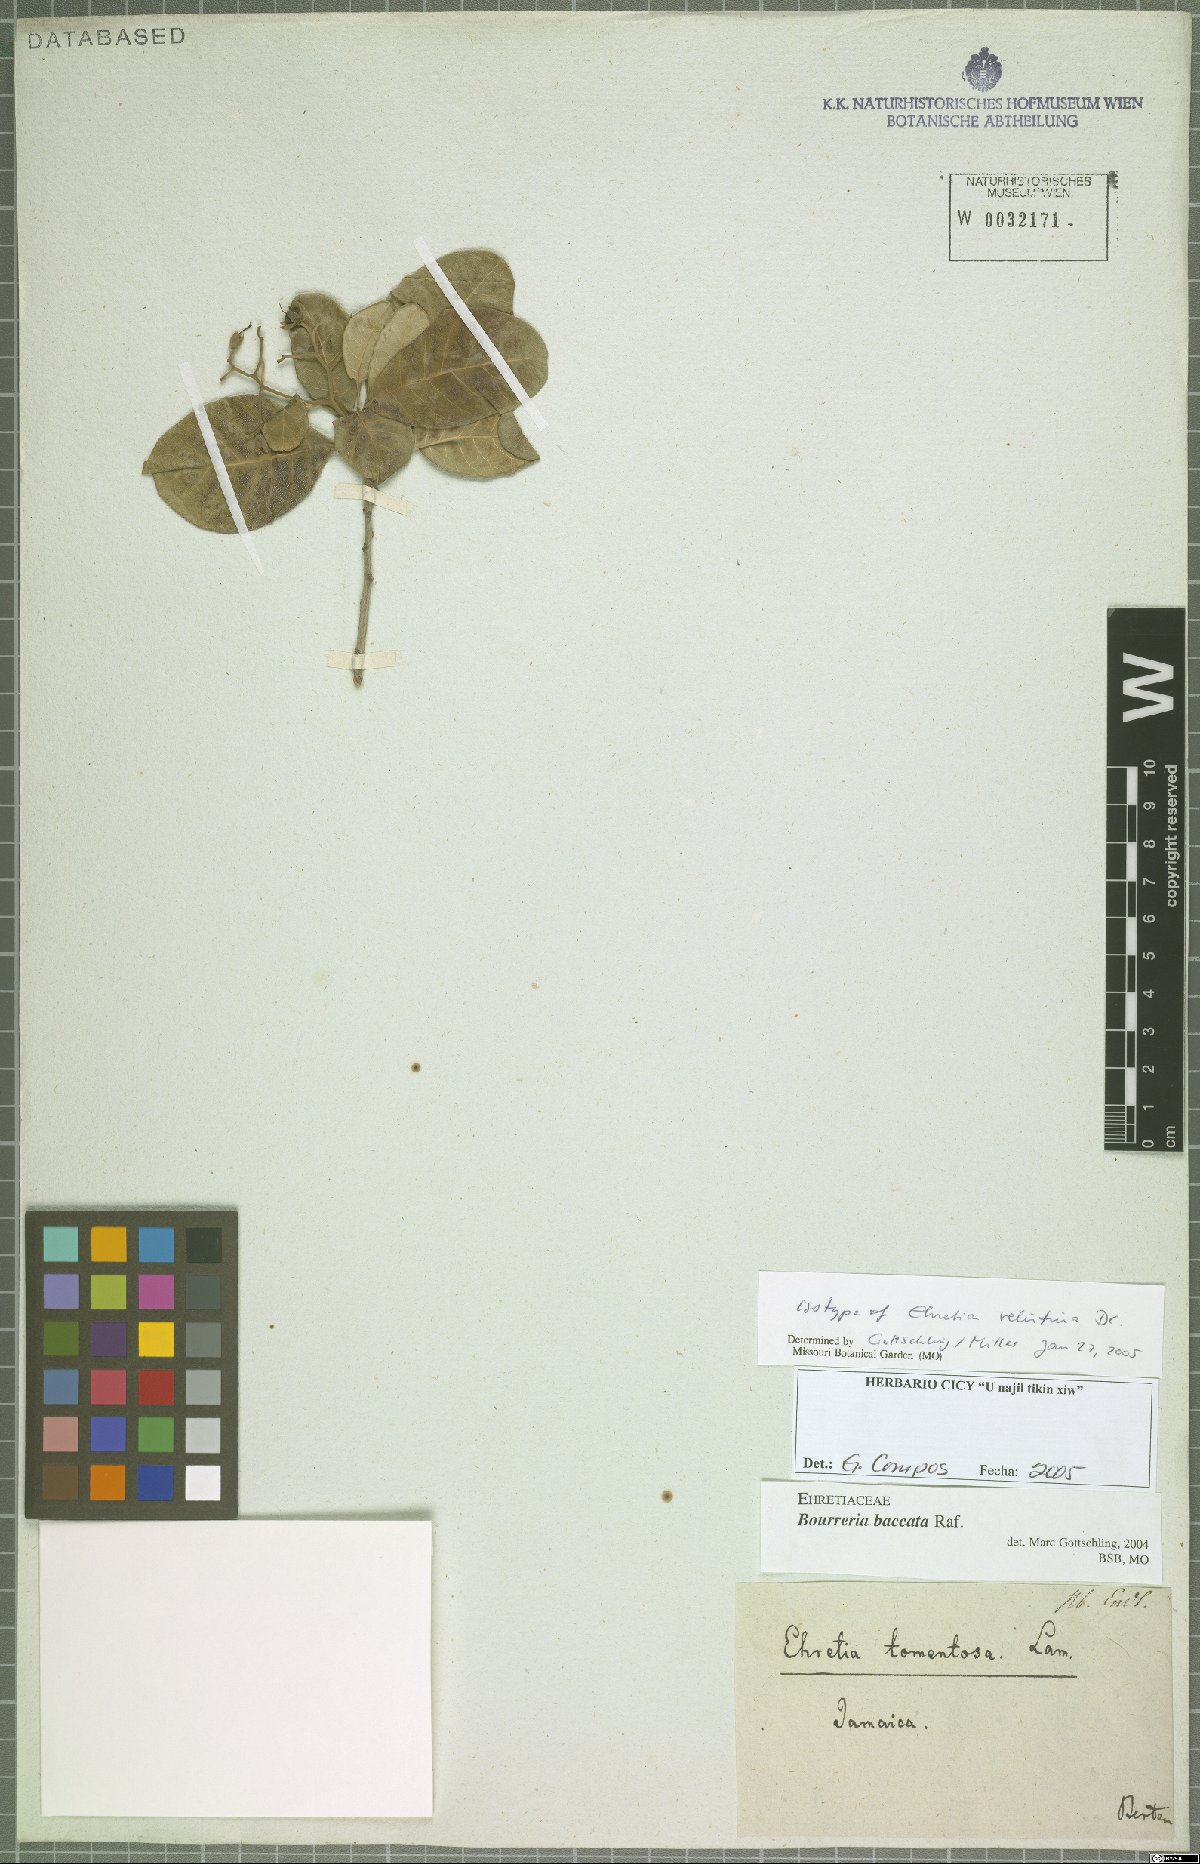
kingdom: Plantae
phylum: Tracheophyta
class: Magnoliopsida
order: Boraginales
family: Ehretiaceae
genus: Bourreria
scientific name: Bourreria succulenta
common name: Cherry
